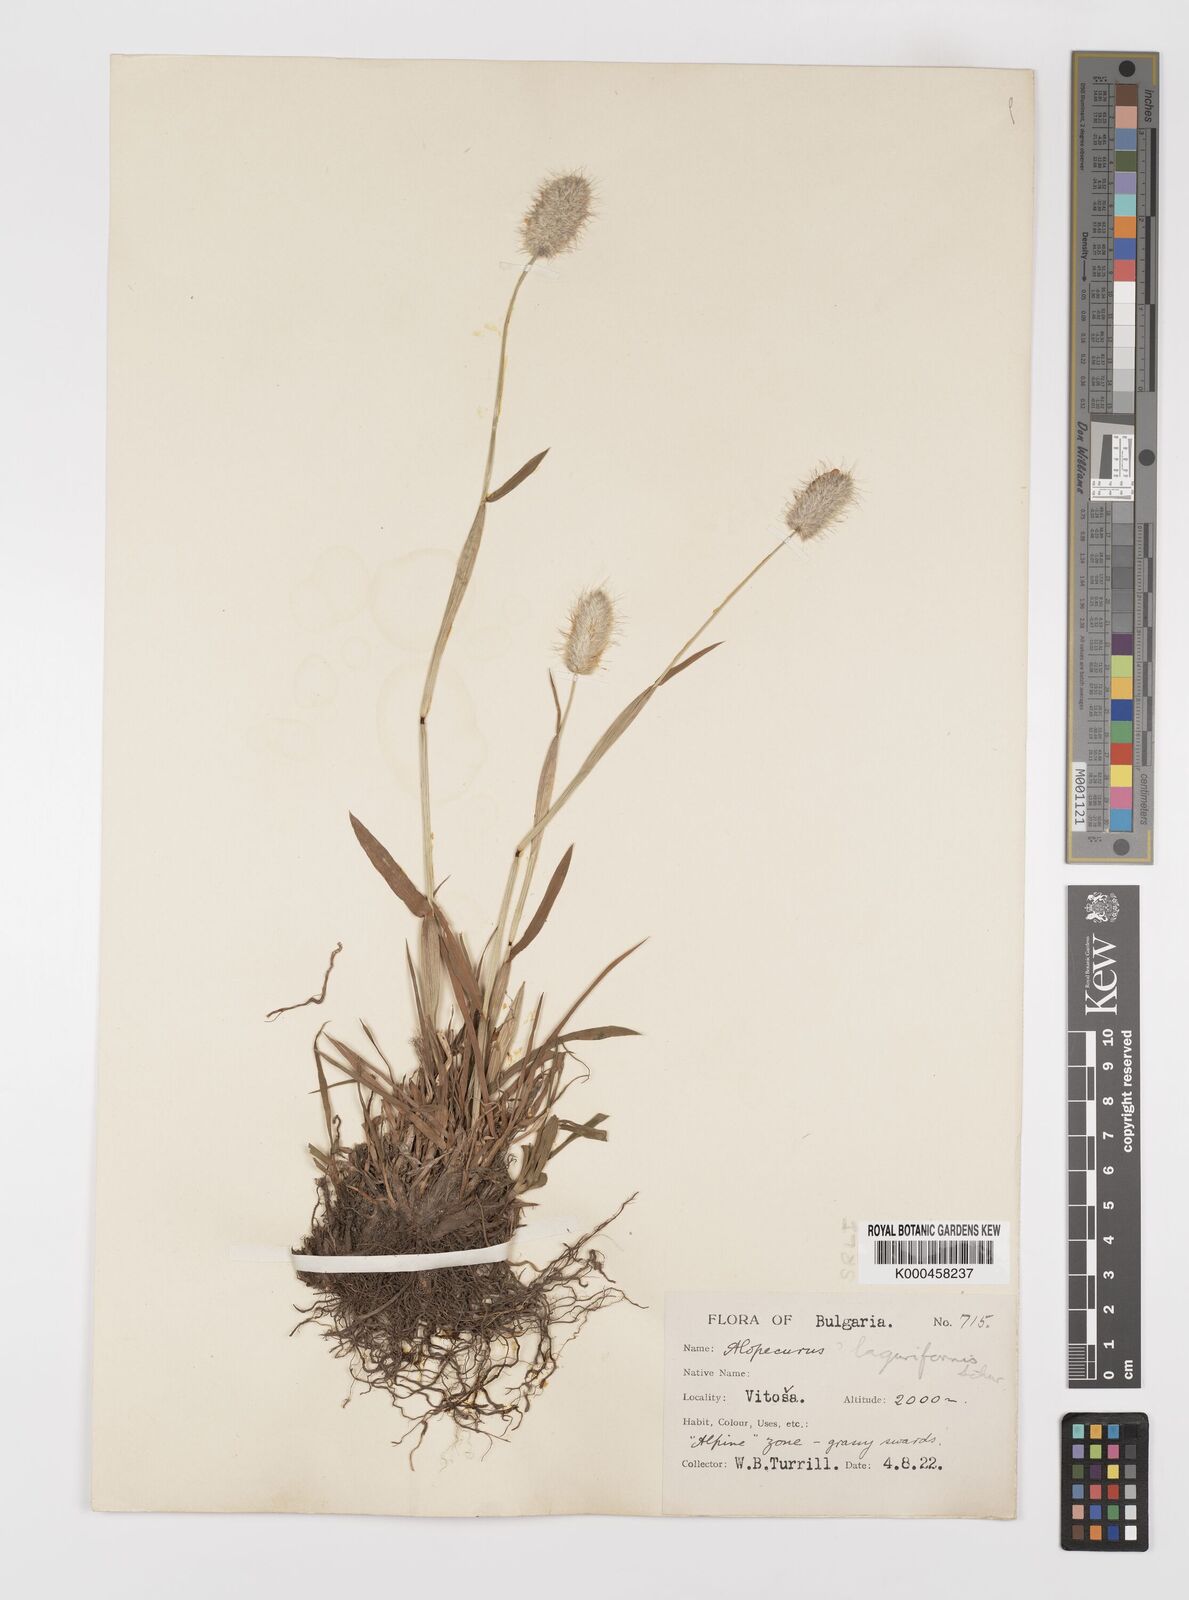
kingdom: Plantae
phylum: Tracheophyta
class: Liliopsida
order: Poales
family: Poaceae
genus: Alopecurus
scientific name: Alopecurus himalaicus
